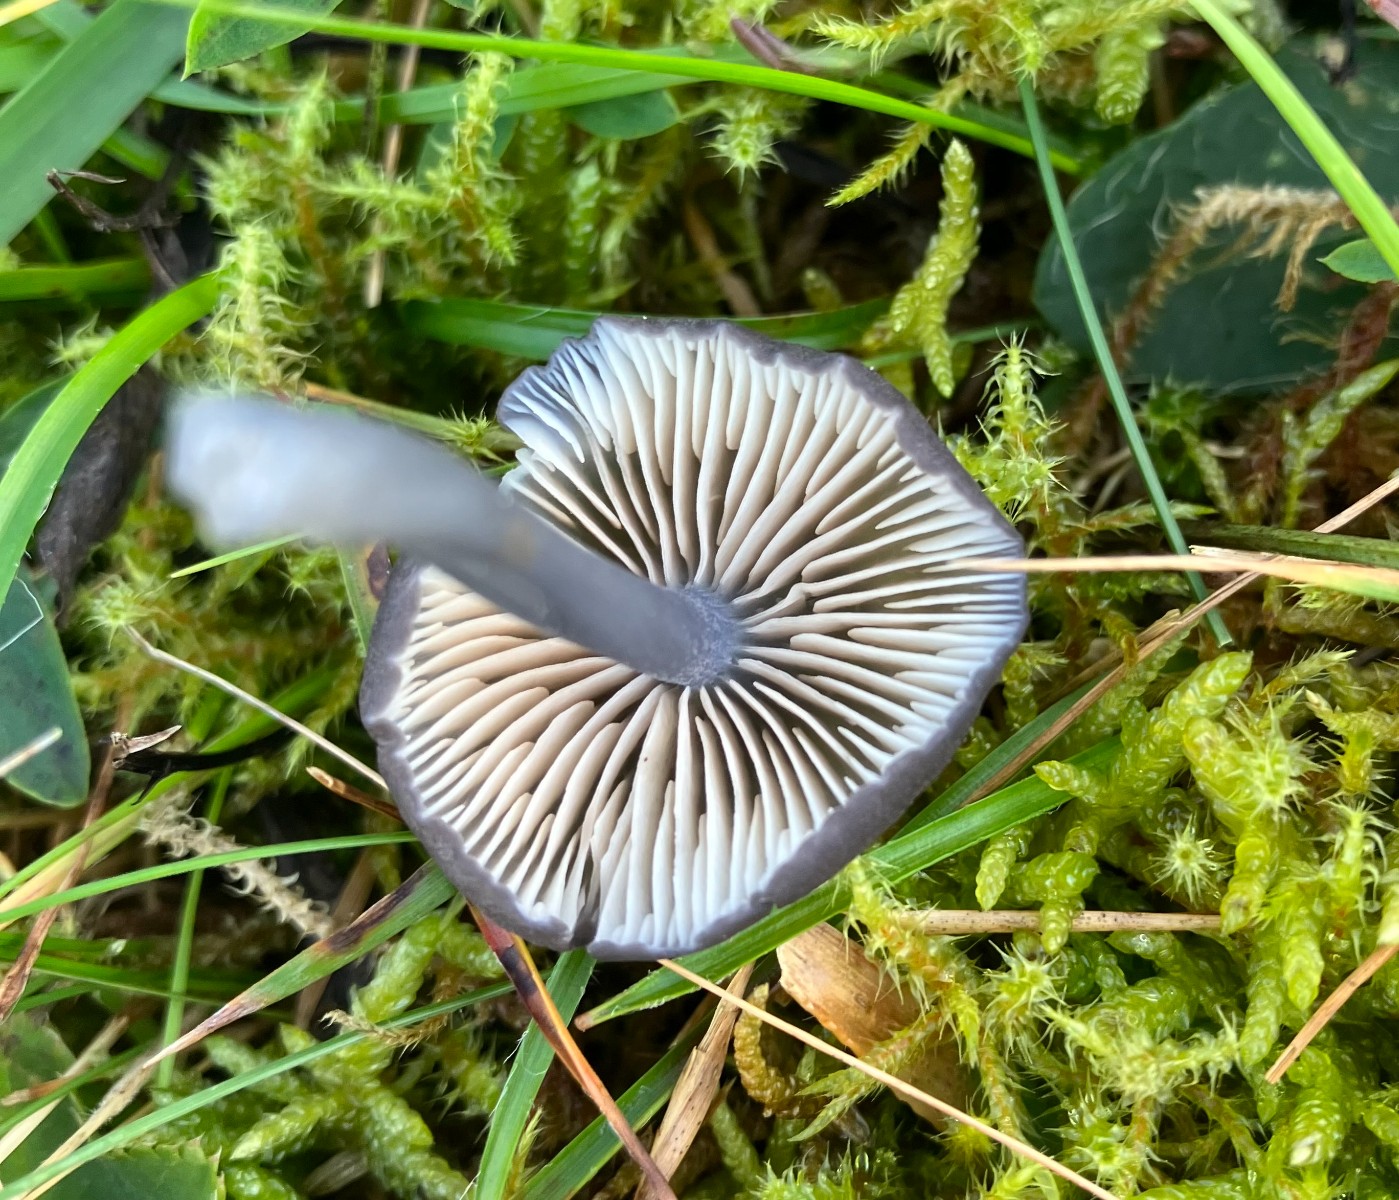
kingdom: Fungi
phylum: Basidiomycota
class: Agaricomycetes
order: Agaricales
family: Entolomataceae
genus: Entoloma
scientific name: Entoloma
